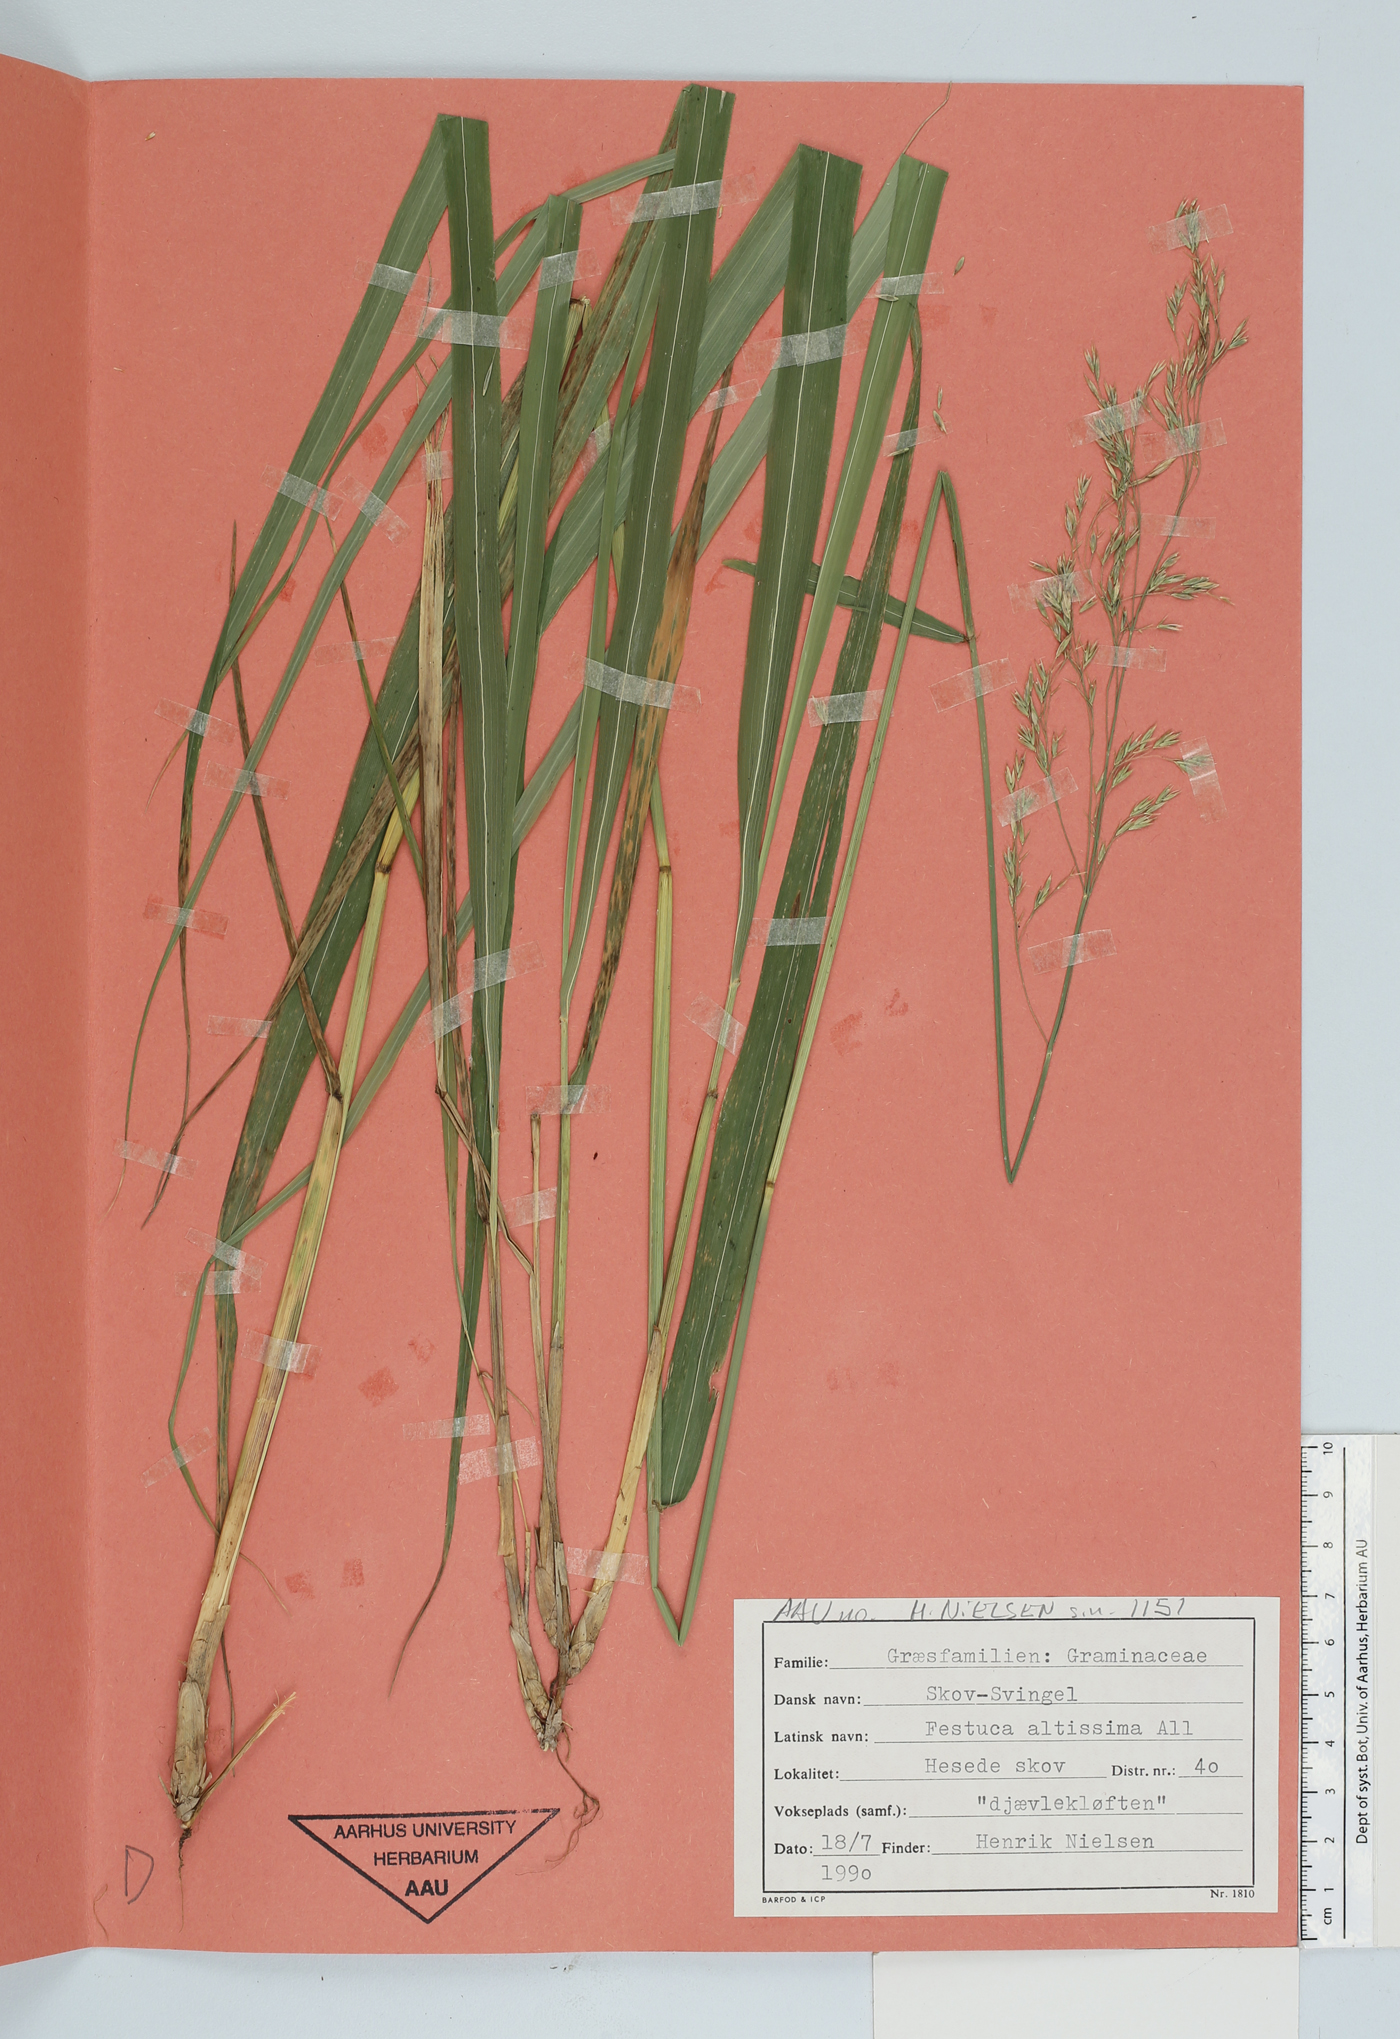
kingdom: Plantae
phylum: Tracheophyta
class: Liliopsida
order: Poales
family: Poaceae
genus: Festuca
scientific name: Festuca altissima
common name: Wood fescue
